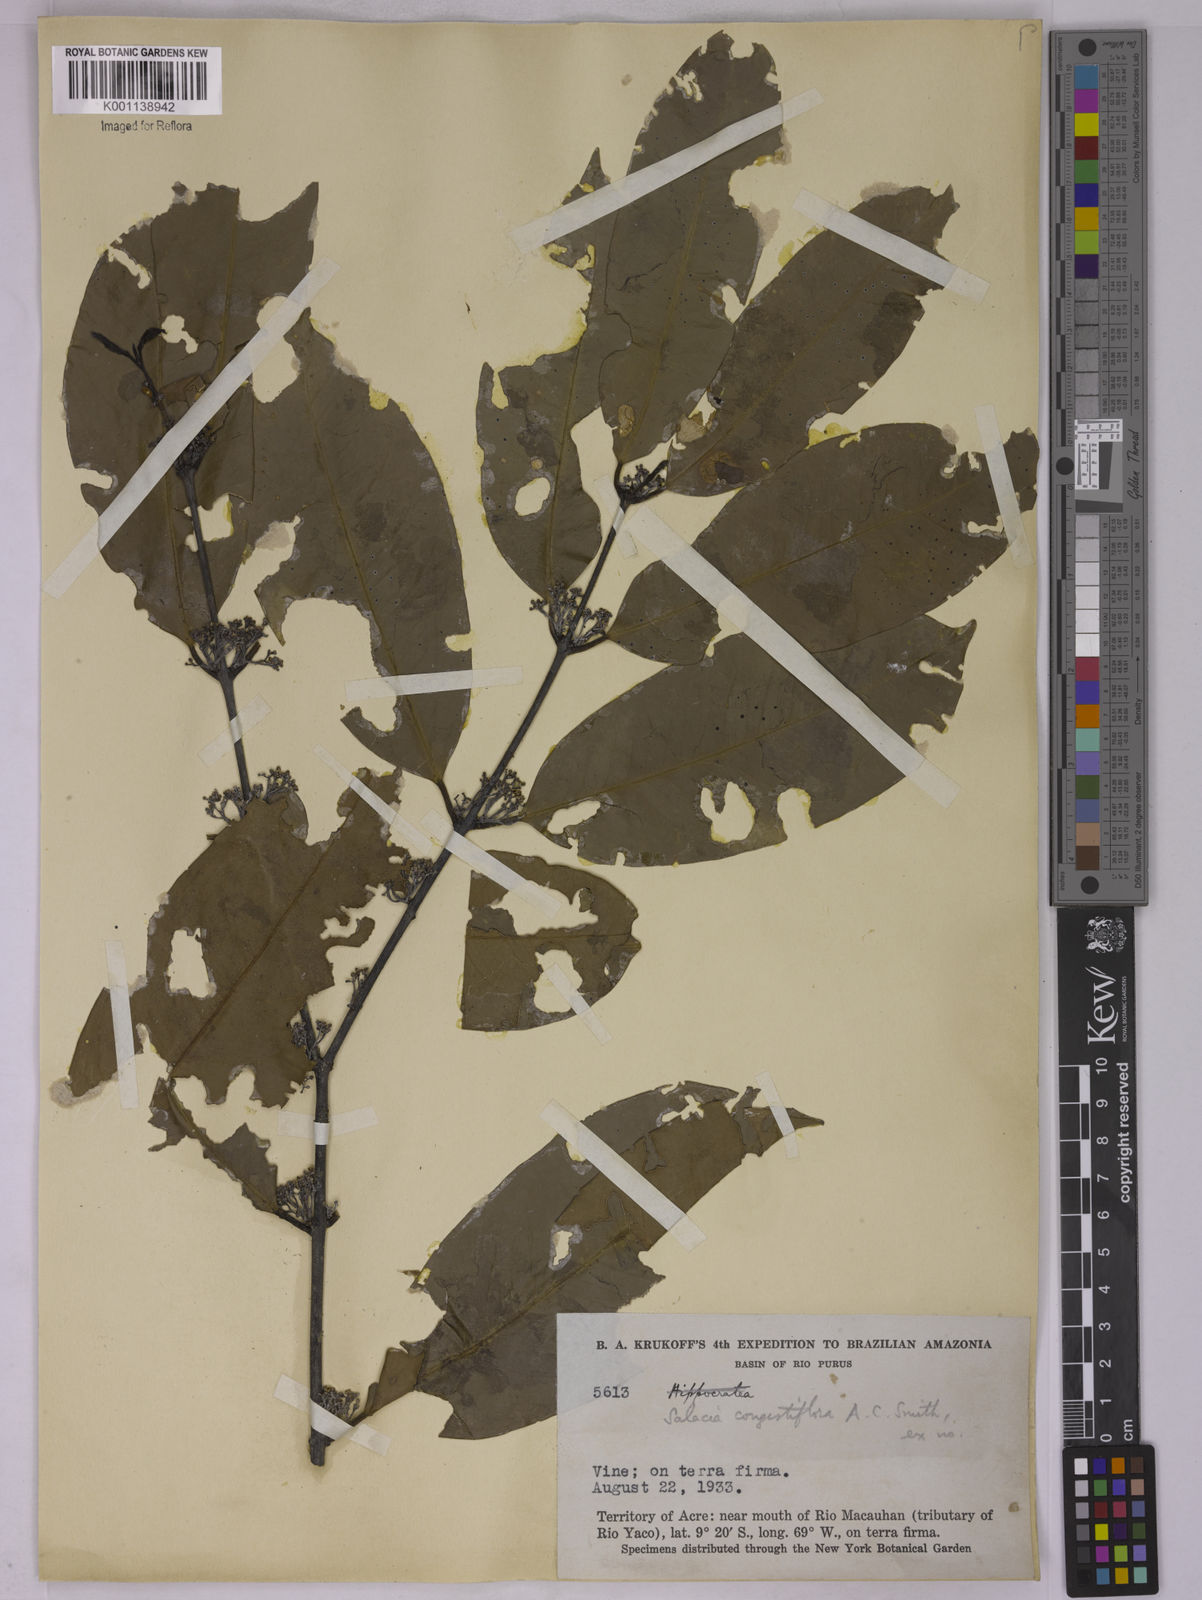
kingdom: Plantae
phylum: Tracheophyta
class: Magnoliopsida
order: Celastrales
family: Celastraceae
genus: Tontelea
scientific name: Tontelea congestiflora
